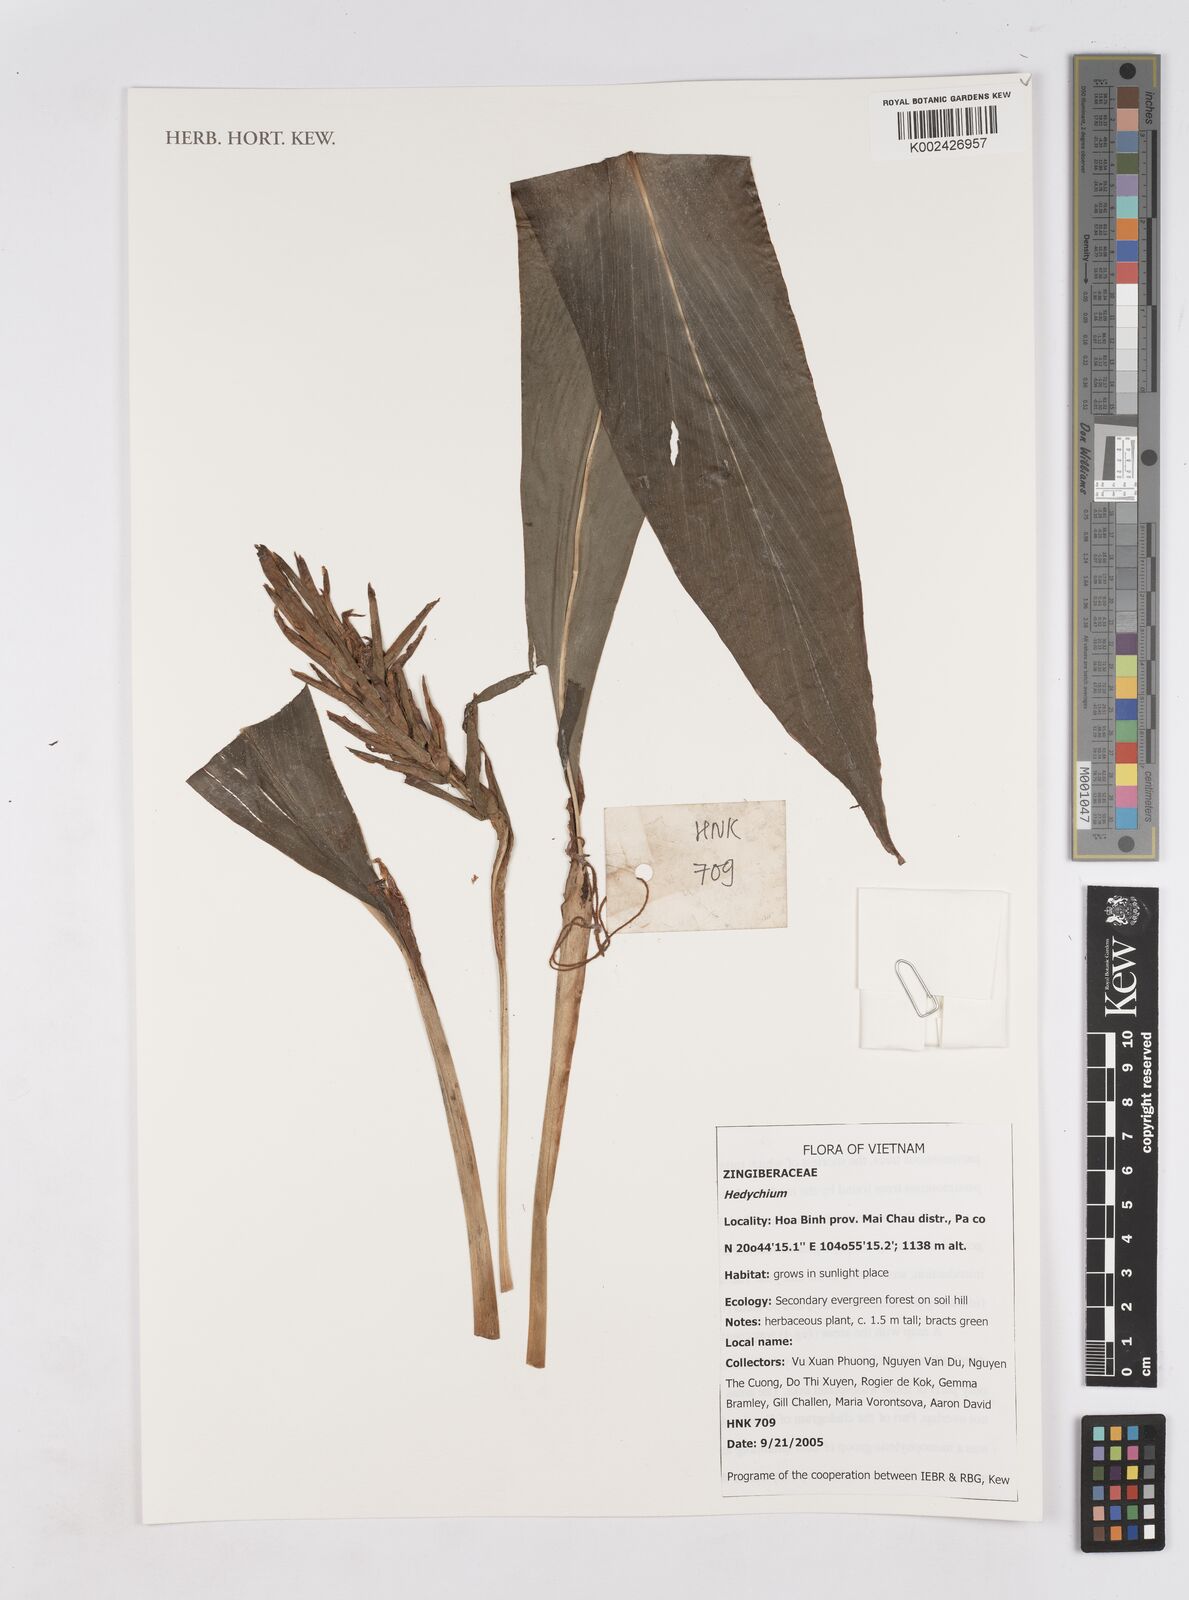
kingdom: Plantae
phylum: Tracheophyta
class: Liliopsida
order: Zingiberales
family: Zingiberaceae
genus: Hedychium
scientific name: Hedychium
